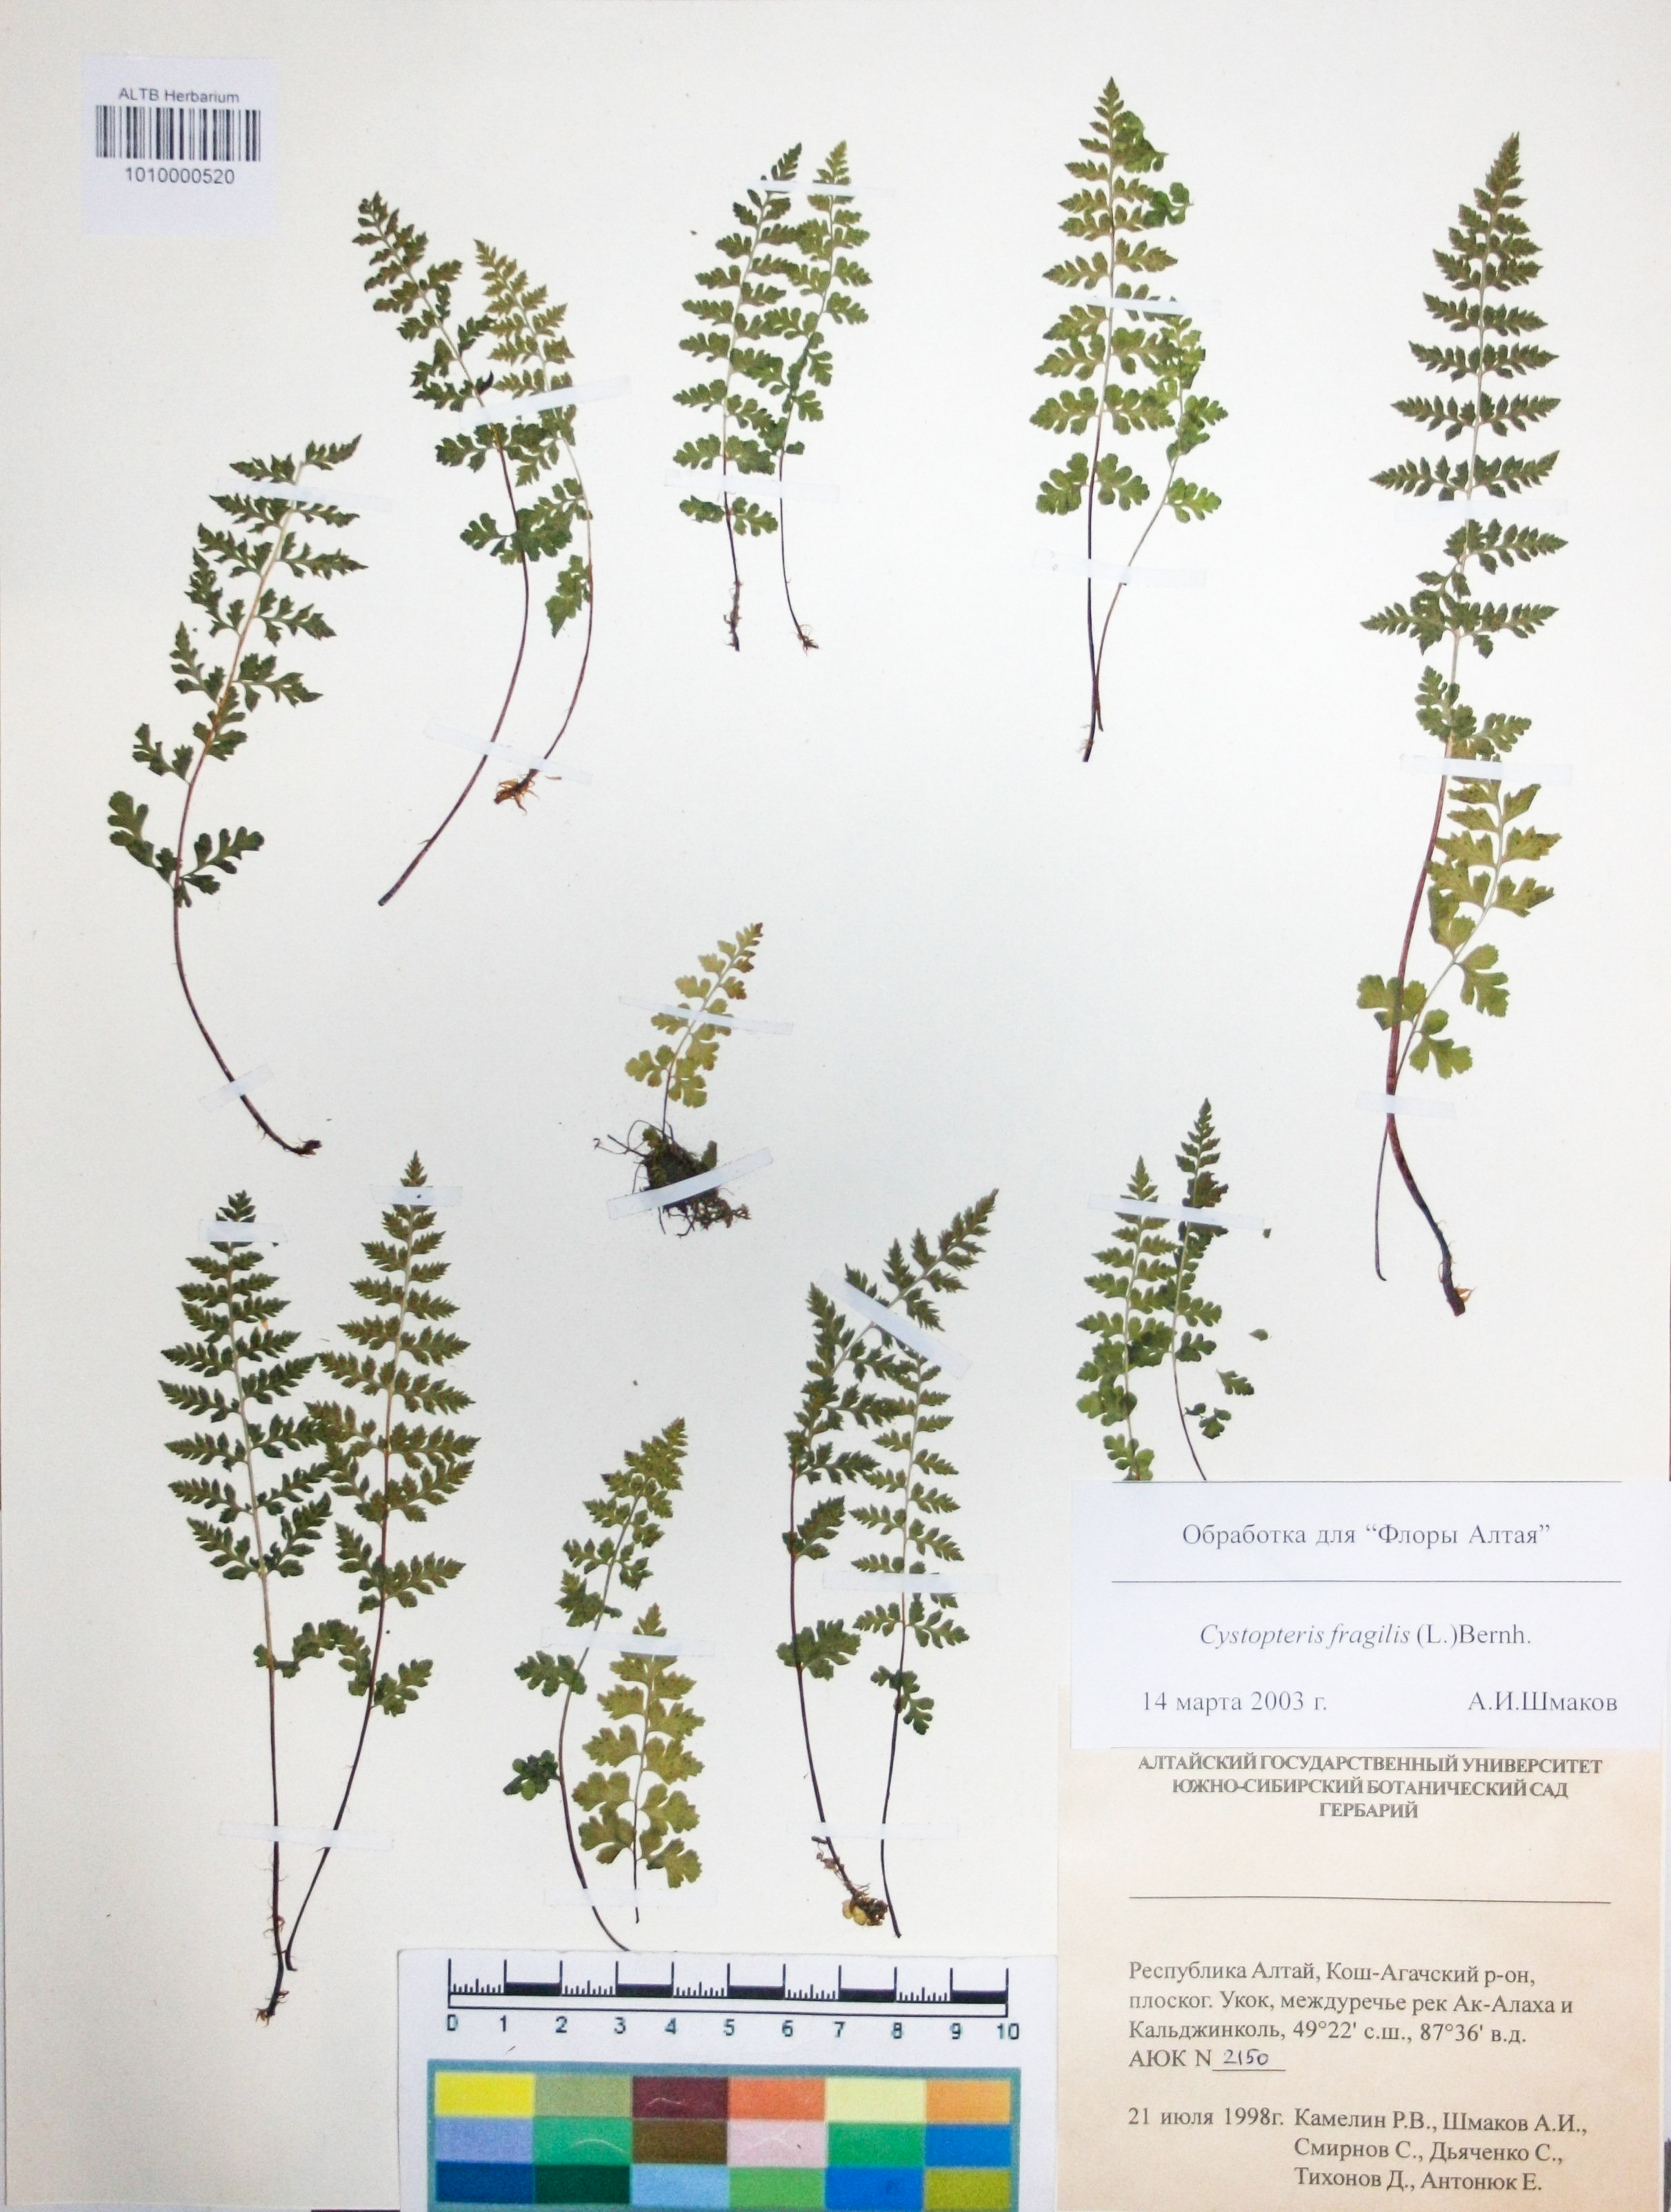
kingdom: Plantae
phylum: Tracheophyta
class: Polypodiopsida
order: Polypodiales
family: Cystopteridaceae
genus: Cystopteris
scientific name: Cystopteris fragilis
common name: Brittle bladder fern
